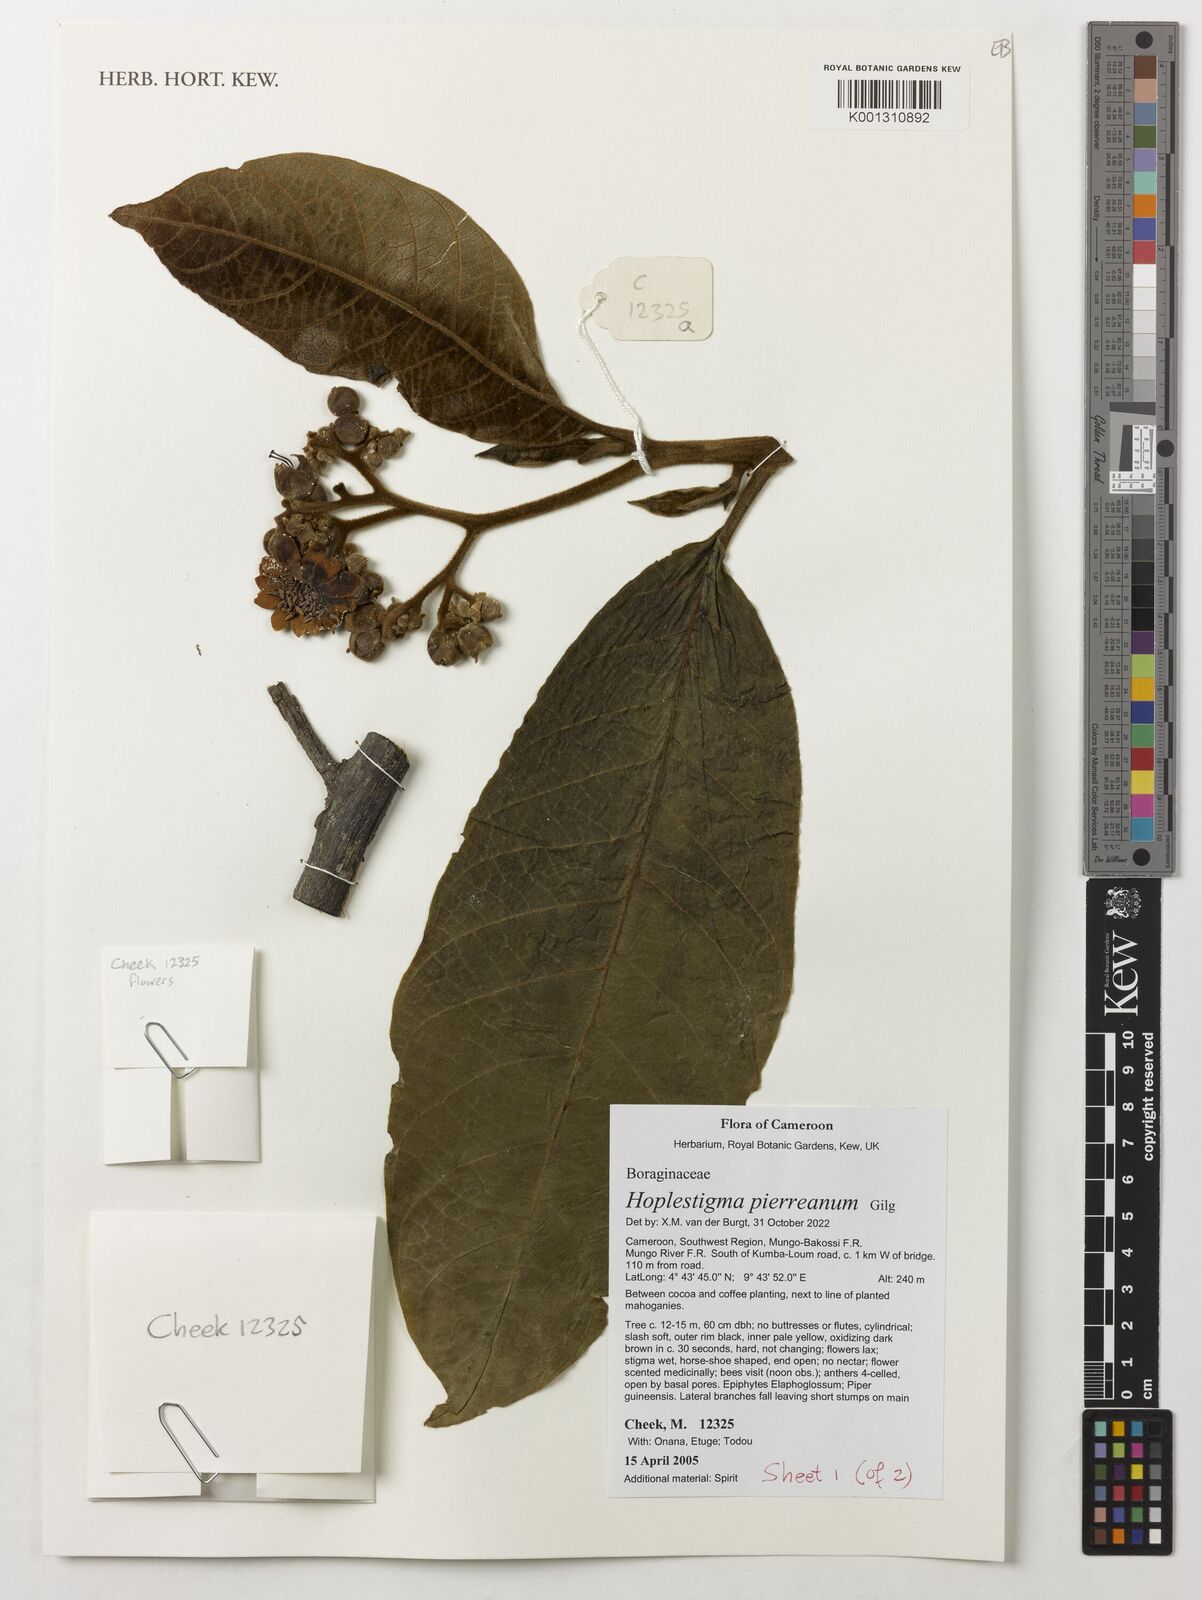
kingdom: Plantae
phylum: Tracheophyta
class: Magnoliopsida
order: Boraginales
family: Hoplestigmataceae
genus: Hoplestigma
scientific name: Hoplestigma pierreanum
